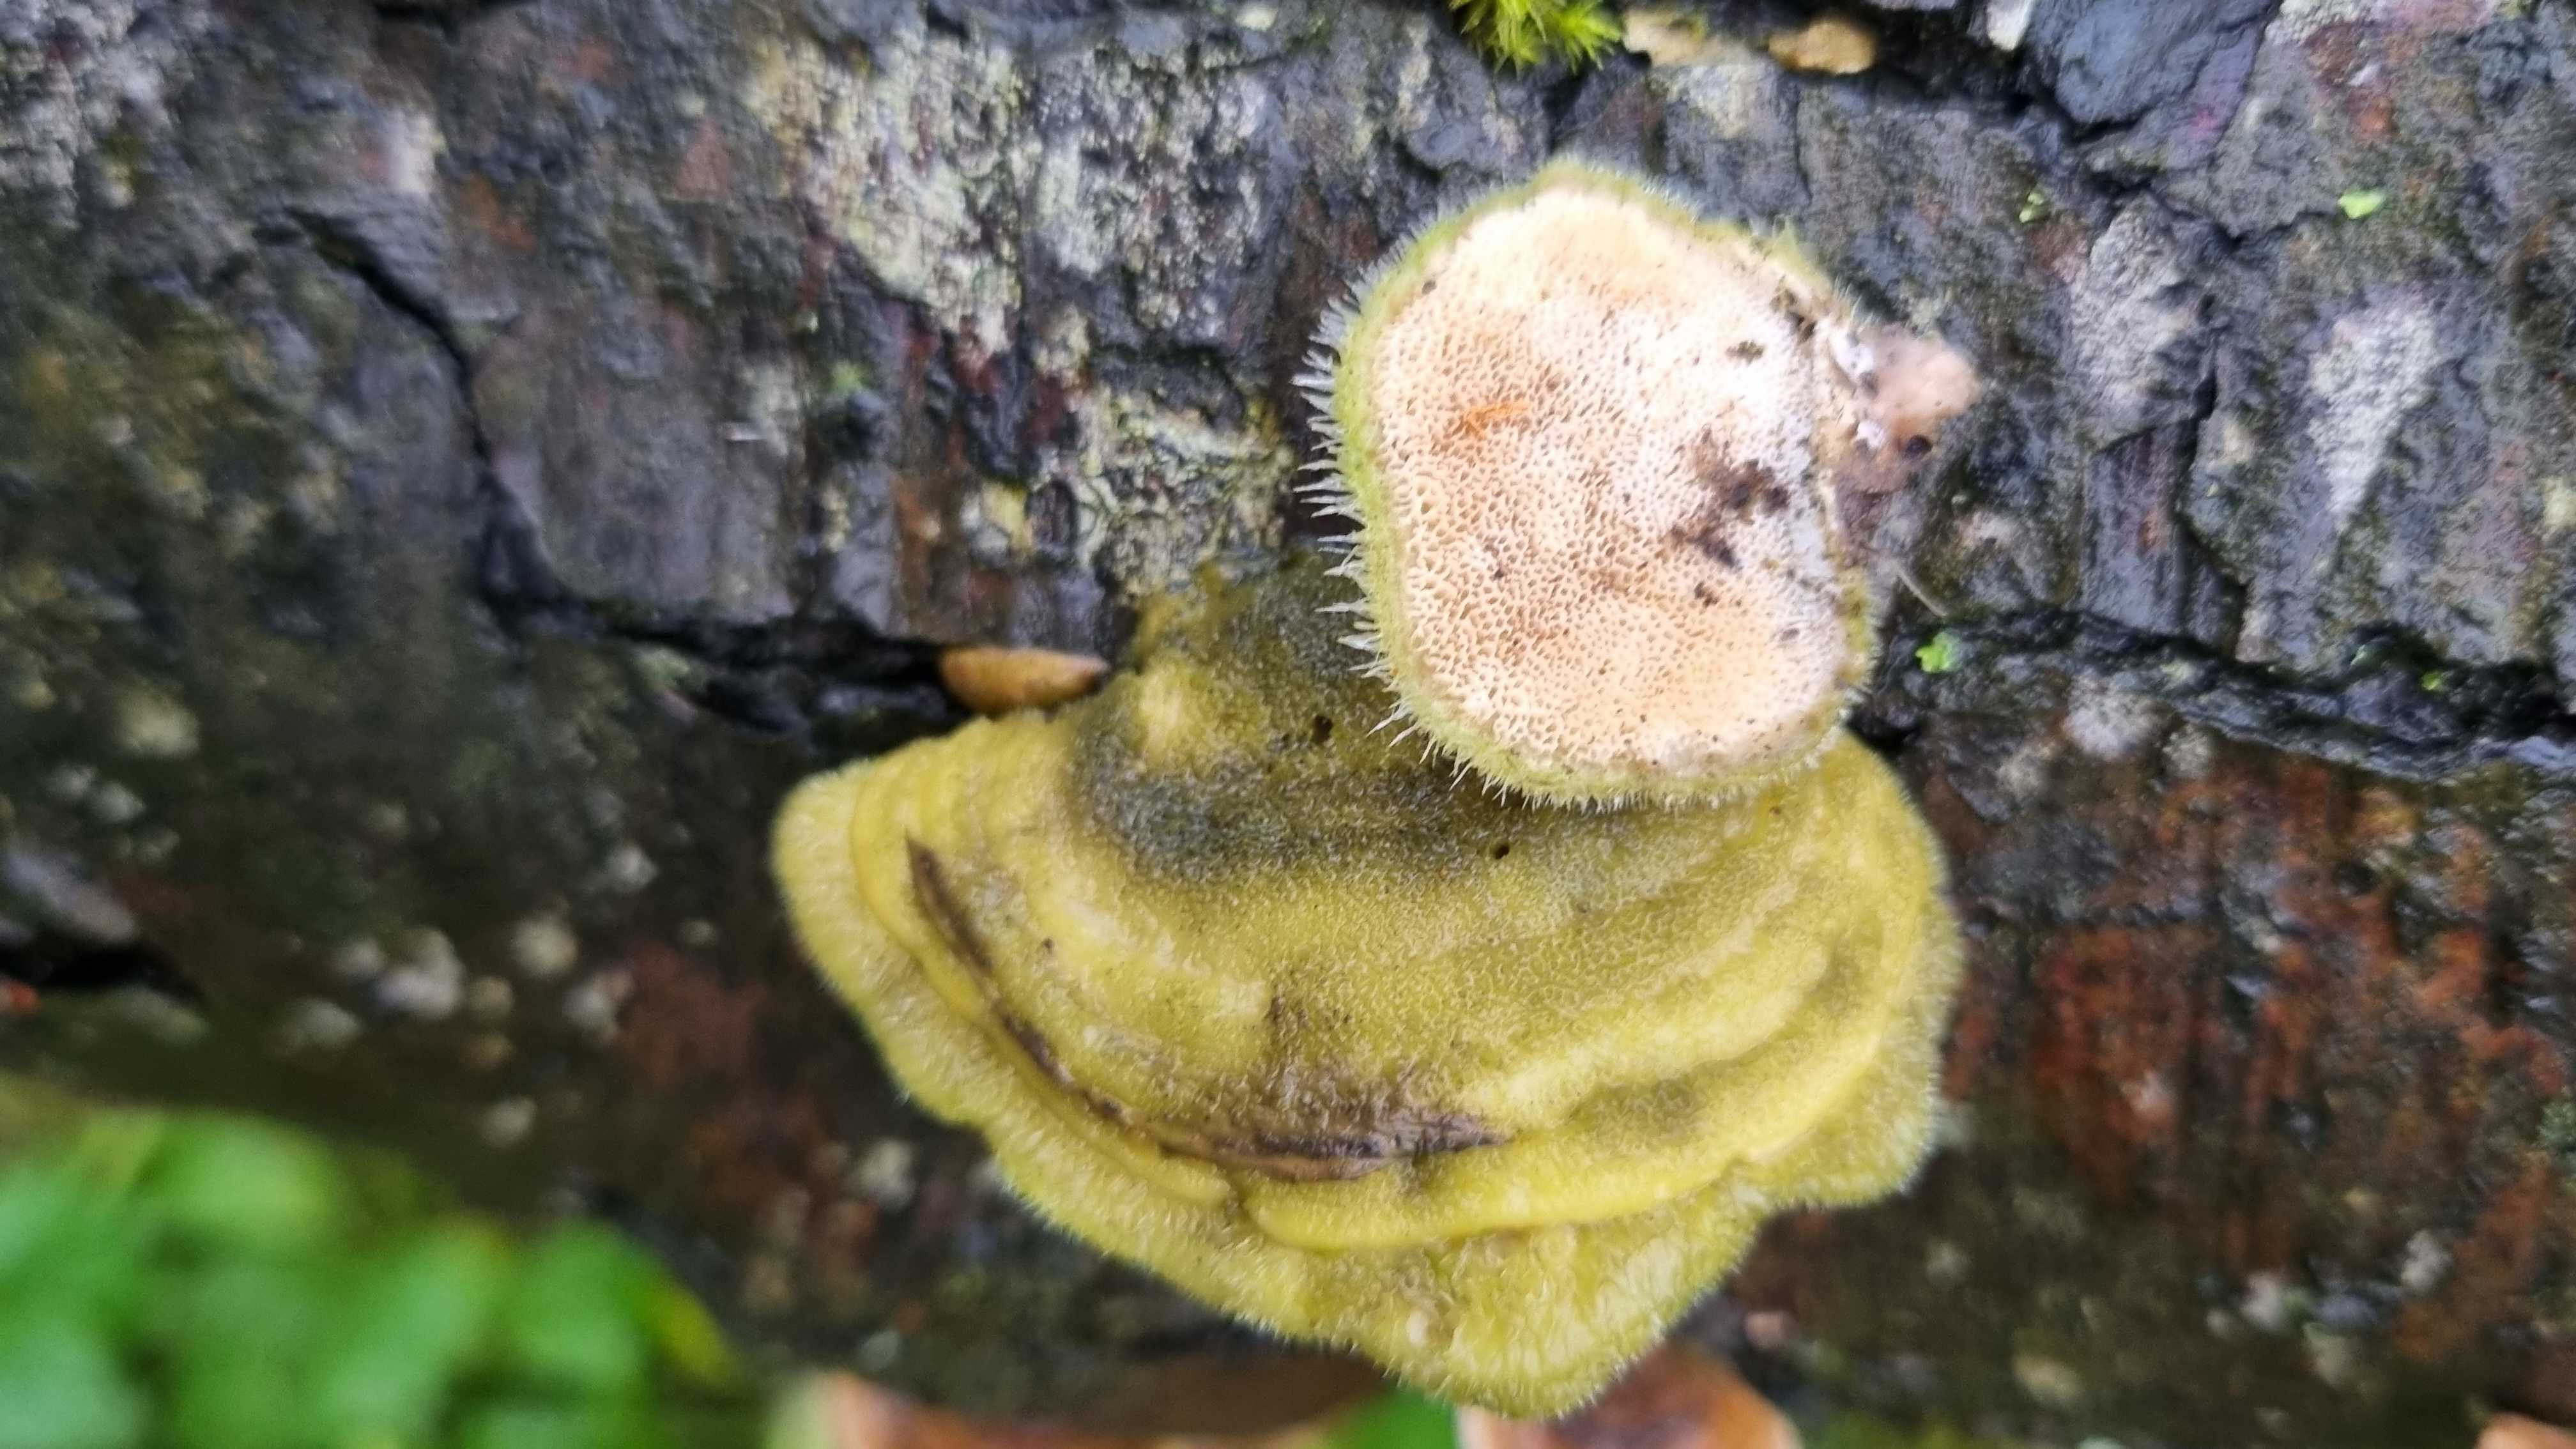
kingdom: Fungi
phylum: Basidiomycota
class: Agaricomycetes
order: Polyporales
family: Polyporaceae
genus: Trametes
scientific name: Trametes hirsuta
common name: håret læderporesvamp
